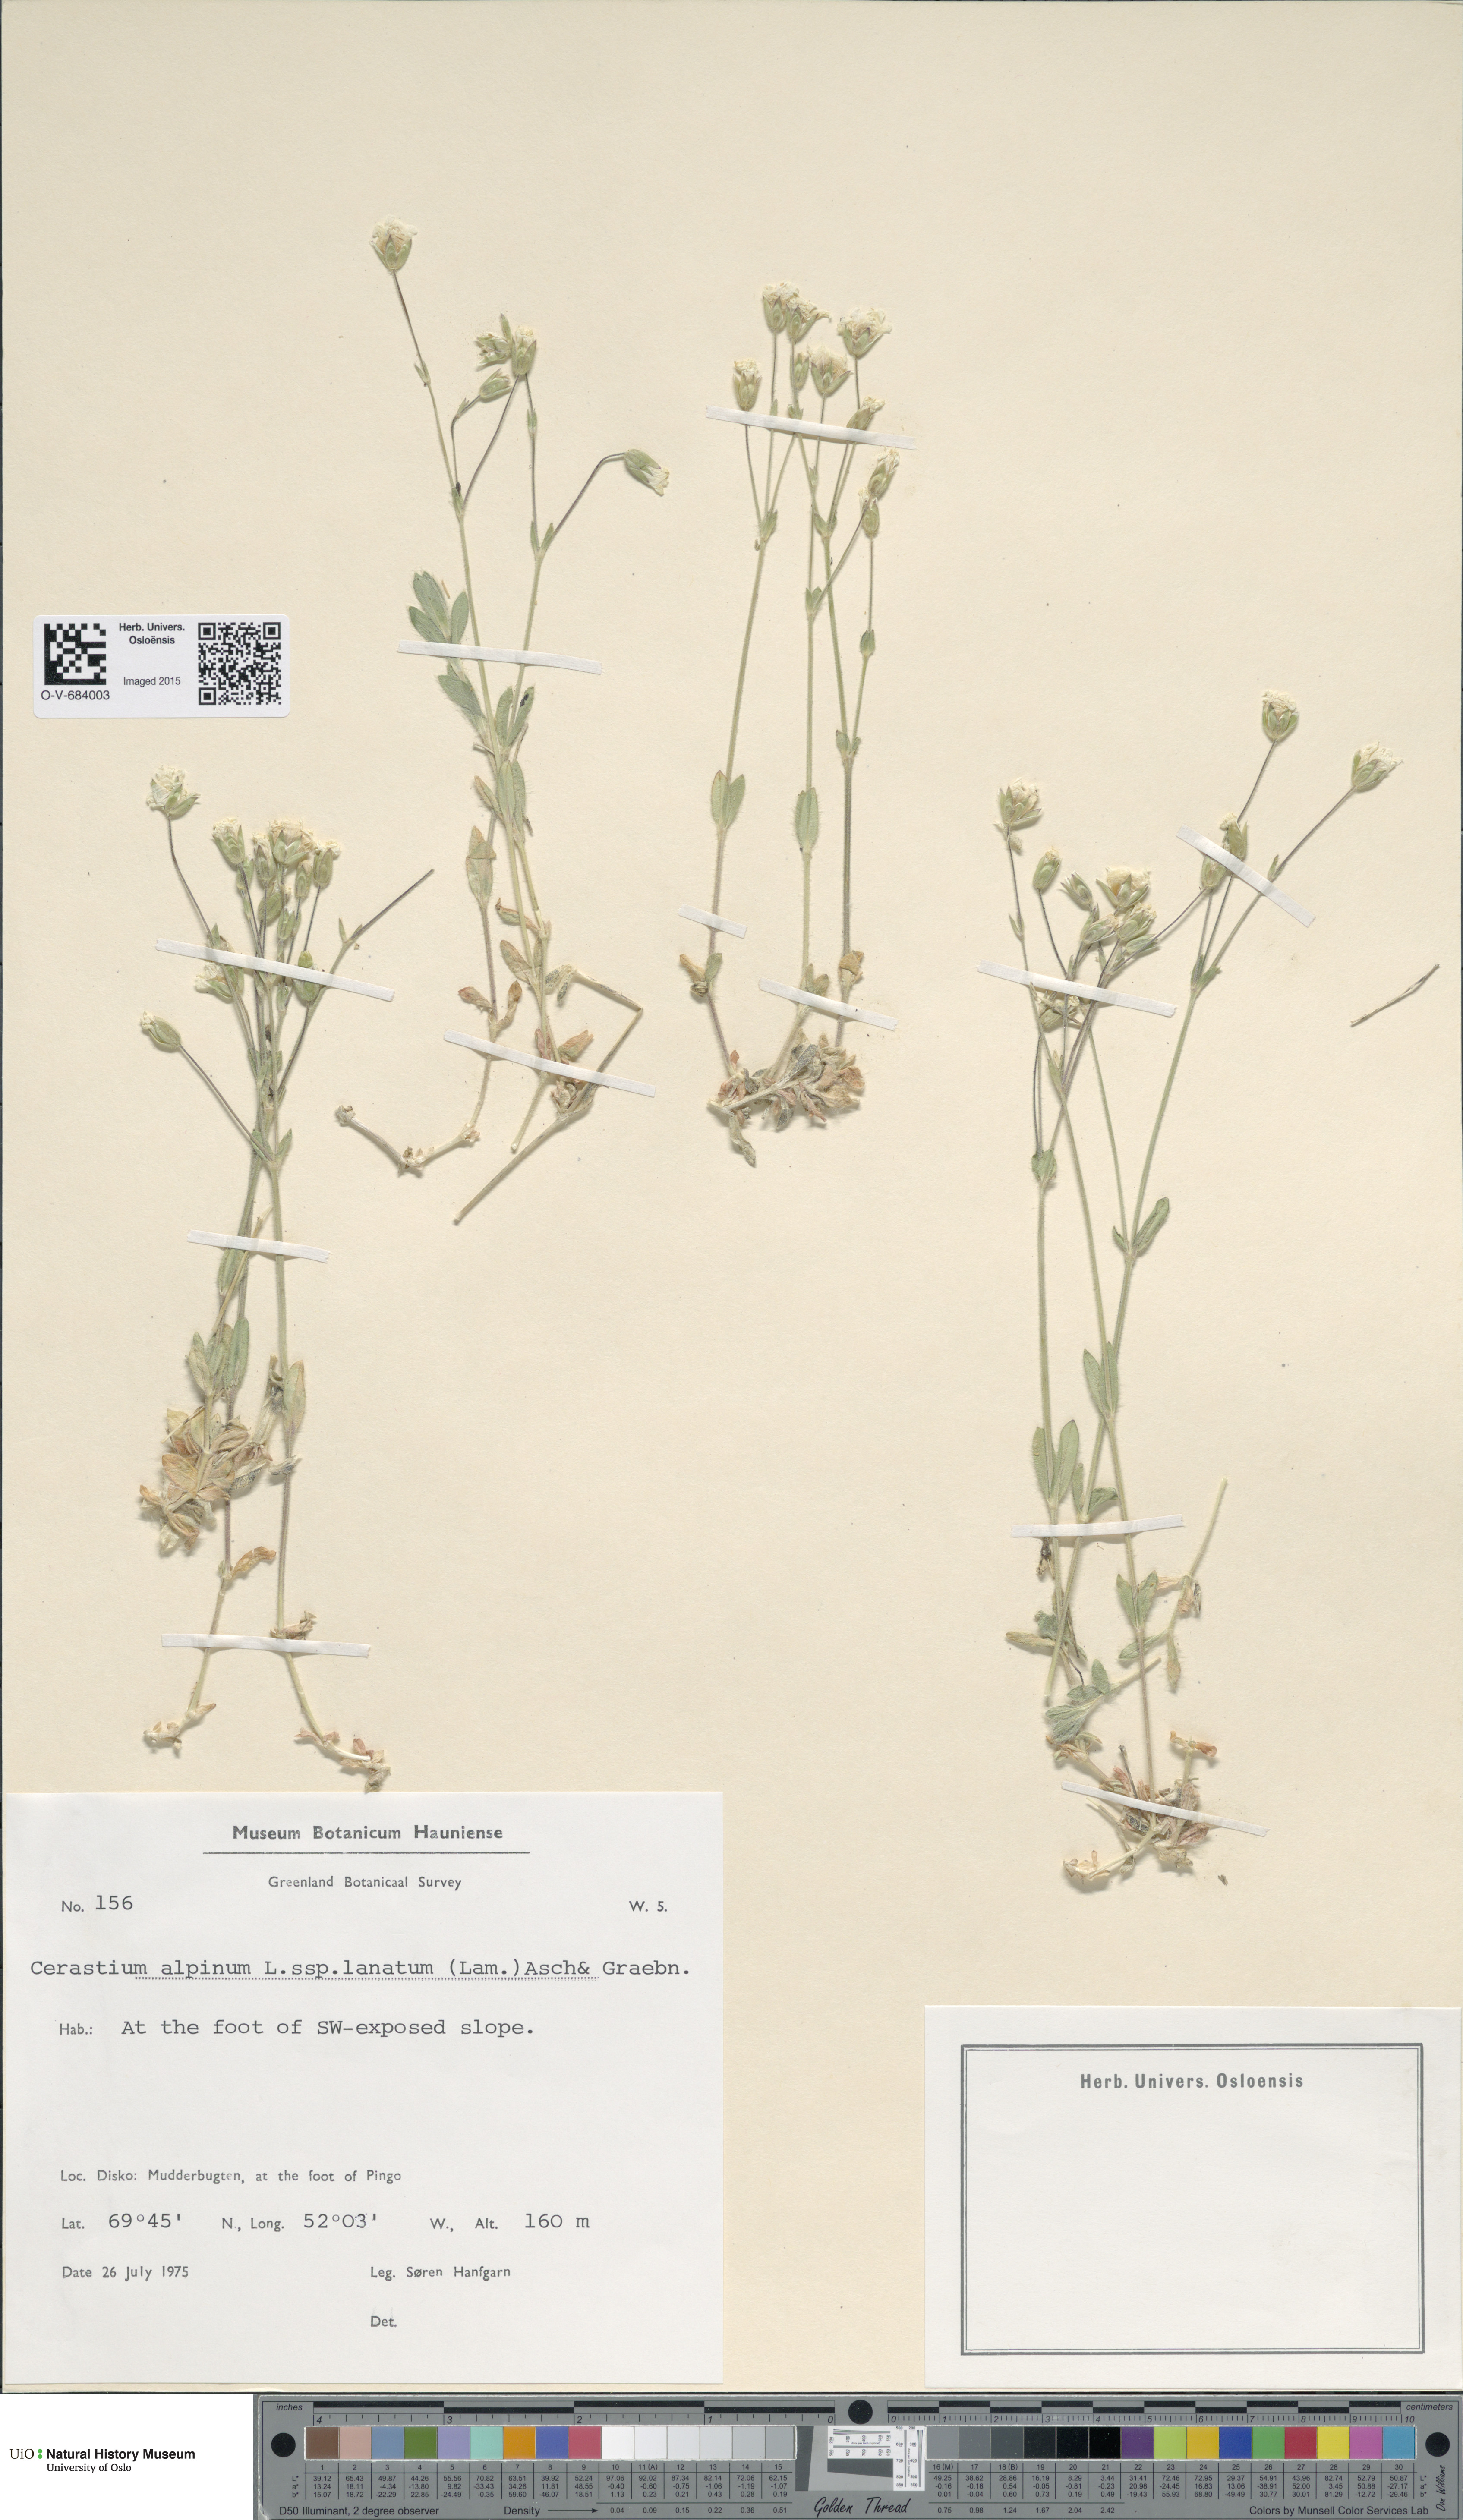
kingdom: Plantae
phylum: Tracheophyta
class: Magnoliopsida
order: Caryophyllales
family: Caryophyllaceae
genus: Cerastium
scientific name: Cerastium alpinum
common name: Alpine mouse-ear
